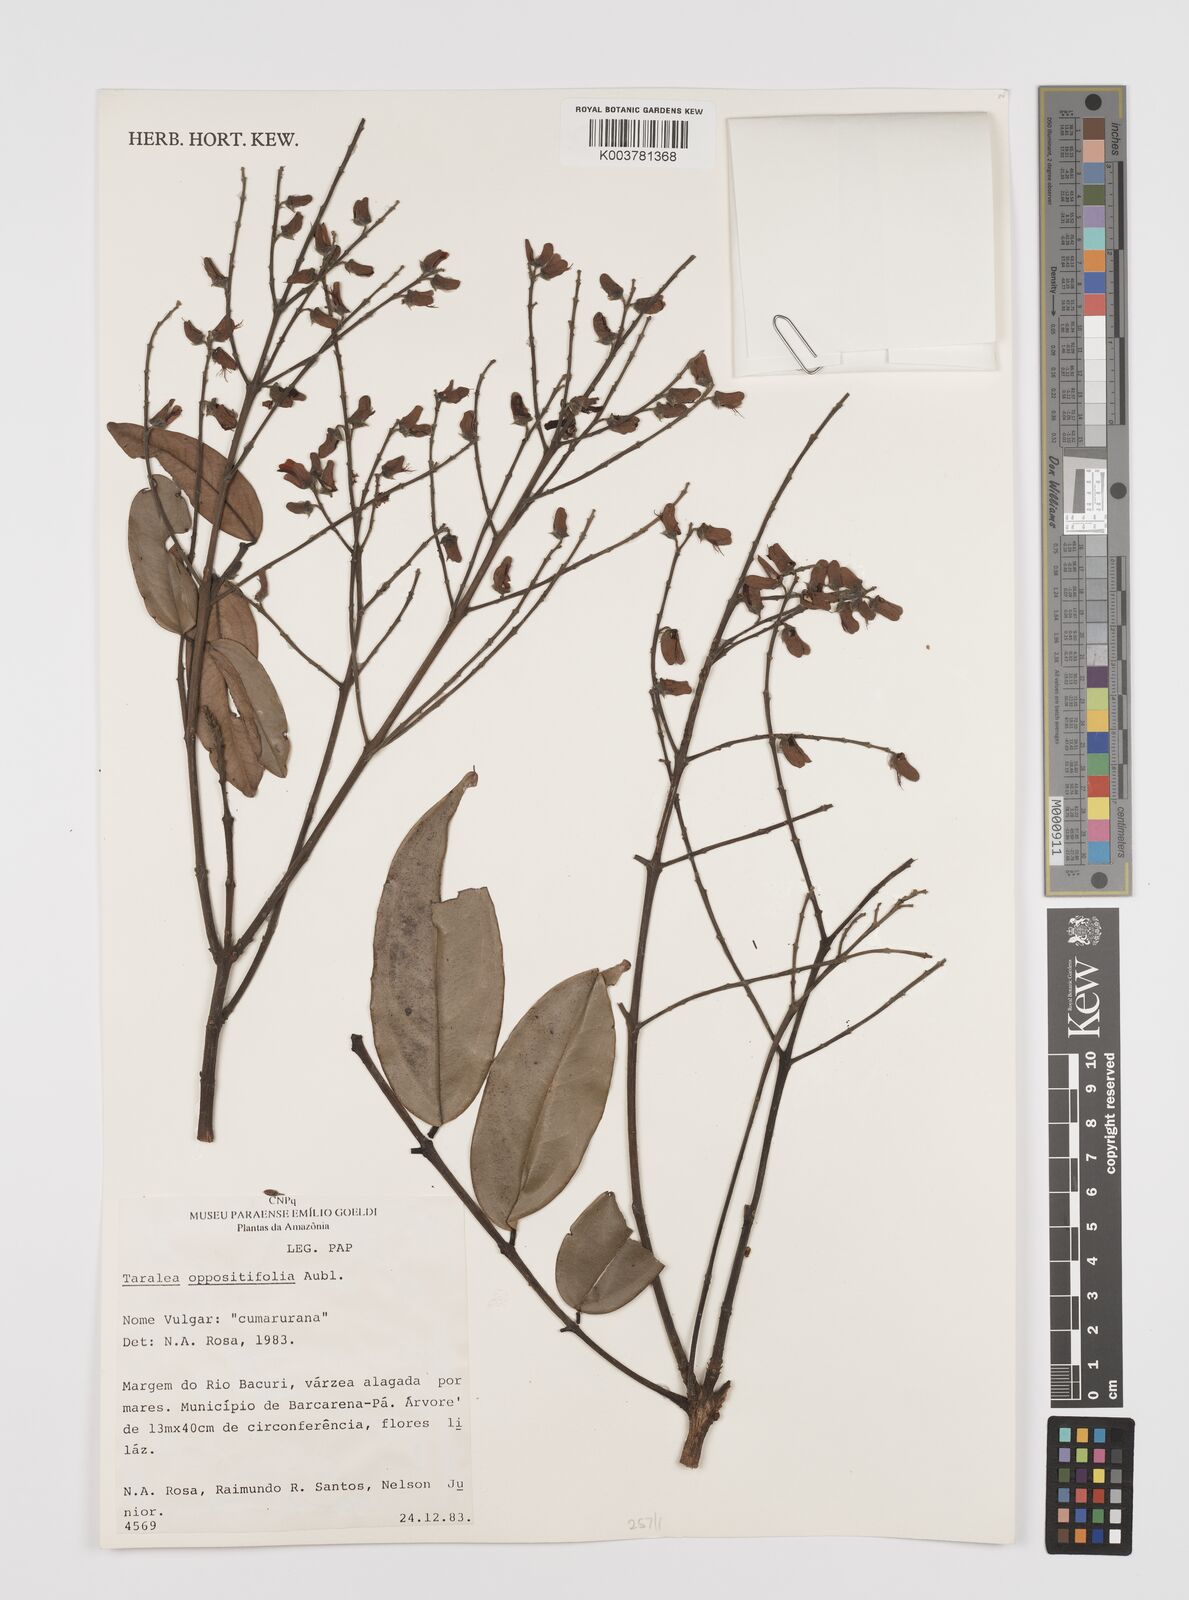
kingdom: Plantae
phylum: Tracheophyta
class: Magnoliopsida
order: Fabales
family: Fabaceae
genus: Taralea
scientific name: Taralea oppositifolia
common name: Tonka
